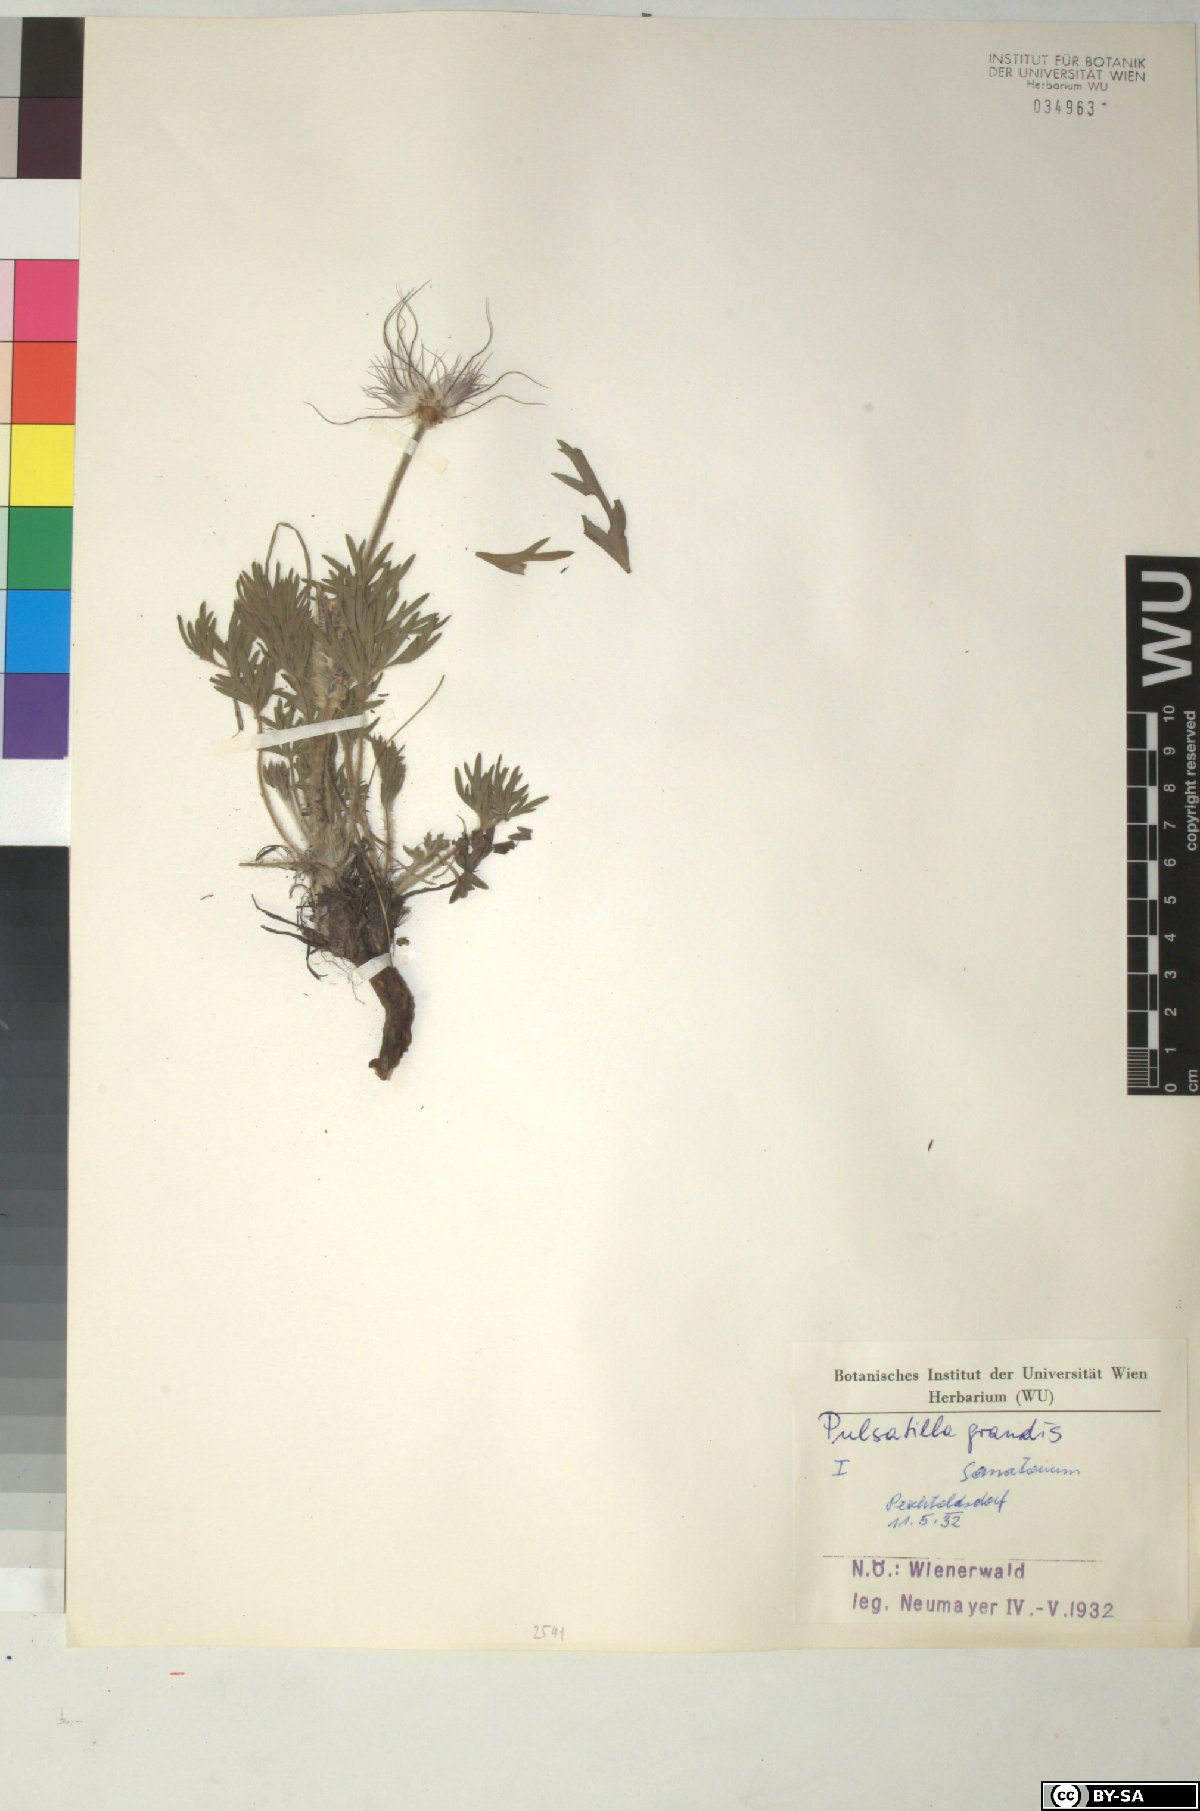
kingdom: Plantae
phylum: Tracheophyta
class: Magnoliopsida
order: Ranunculales
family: Ranunculaceae
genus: Pulsatilla
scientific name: Pulsatilla grandis
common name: Greater pasque flower
